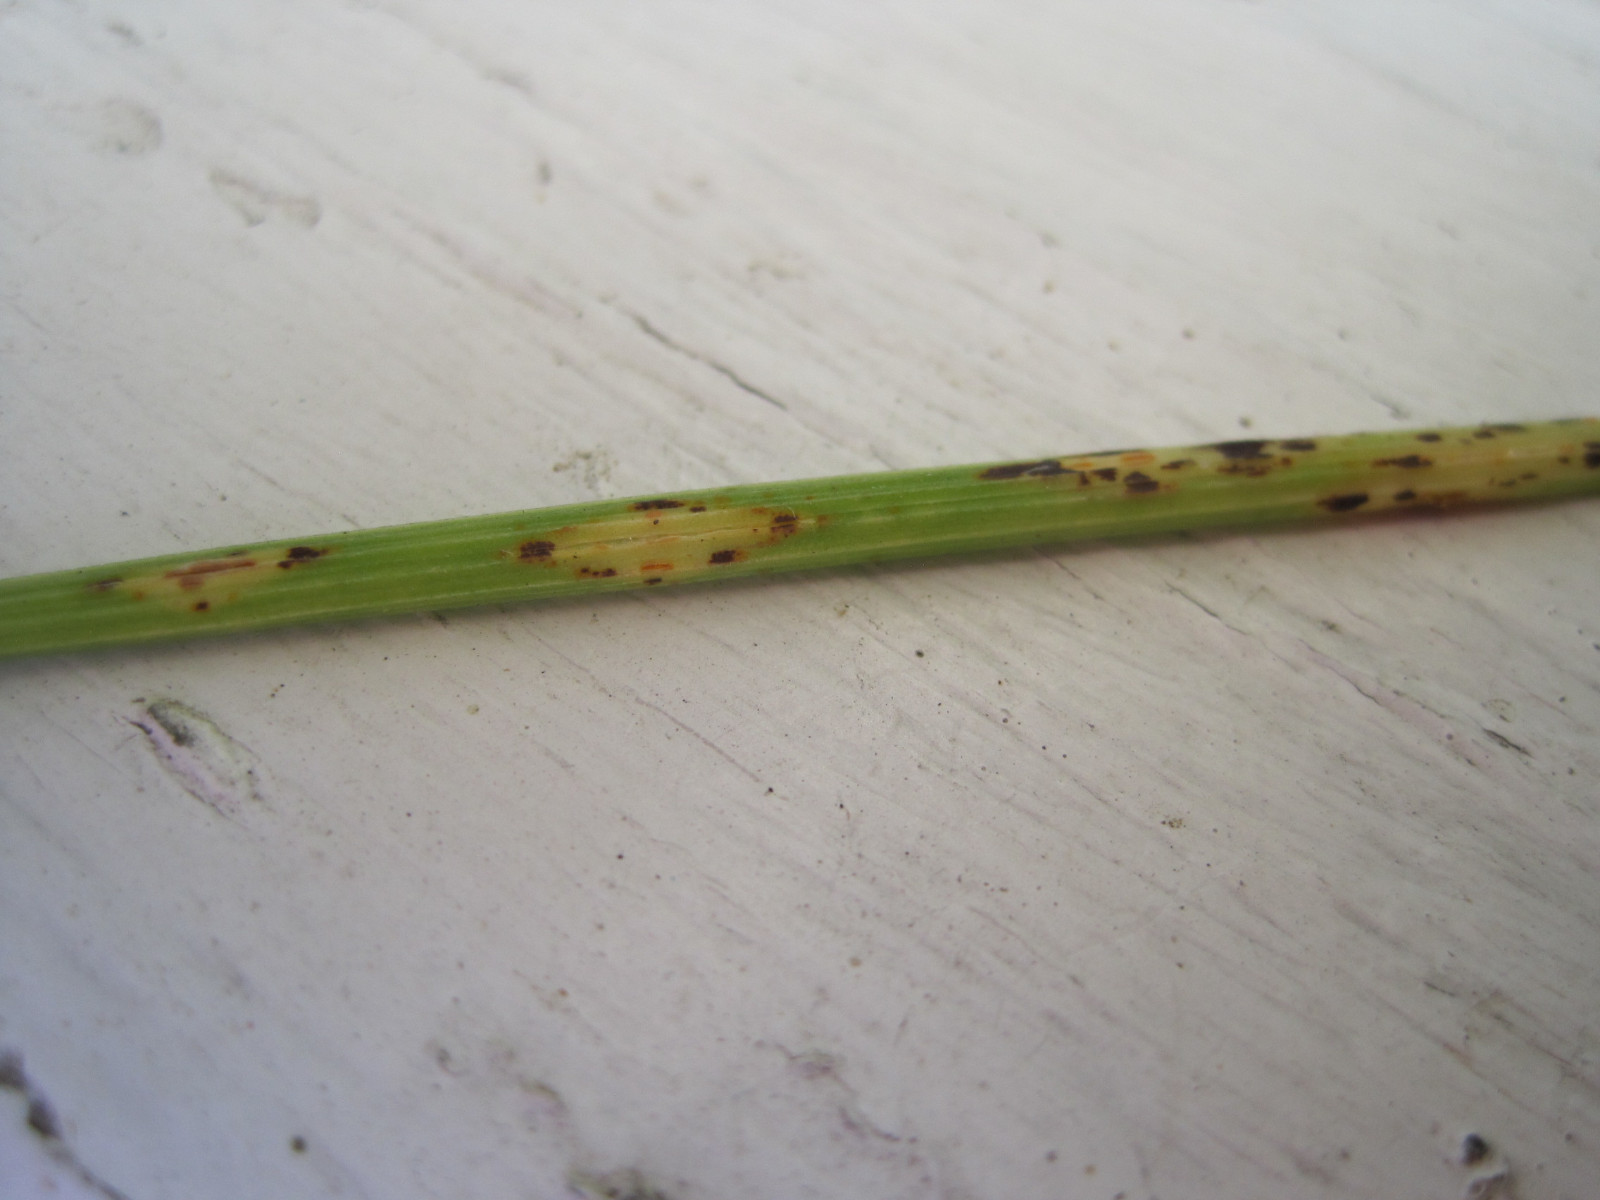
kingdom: Fungi
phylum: Basidiomycota
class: Pucciniomycetes
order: Pucciniales
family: Pucciniaceae
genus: Puccinia
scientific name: Puccinia porri
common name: Allium rust
